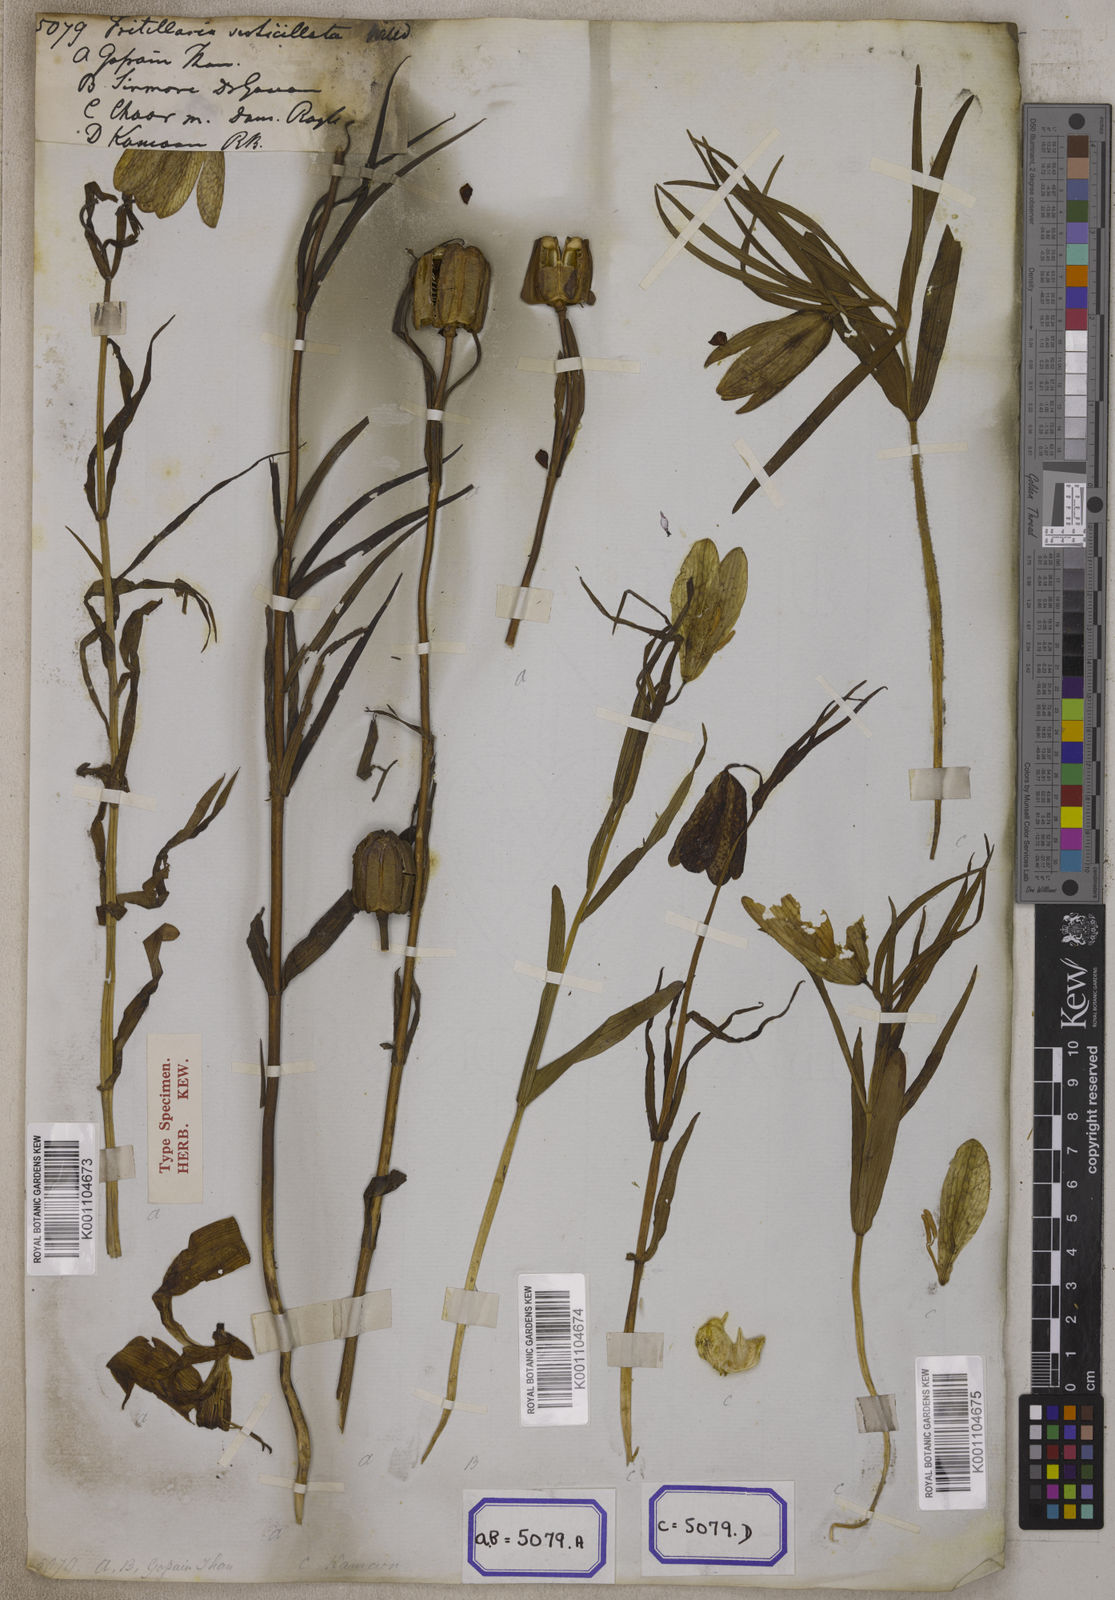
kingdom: Plantae
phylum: Tracheophyta
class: Liliopsida
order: Liliales
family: Liliaceae
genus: Fritillaria
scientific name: Fritillaria
